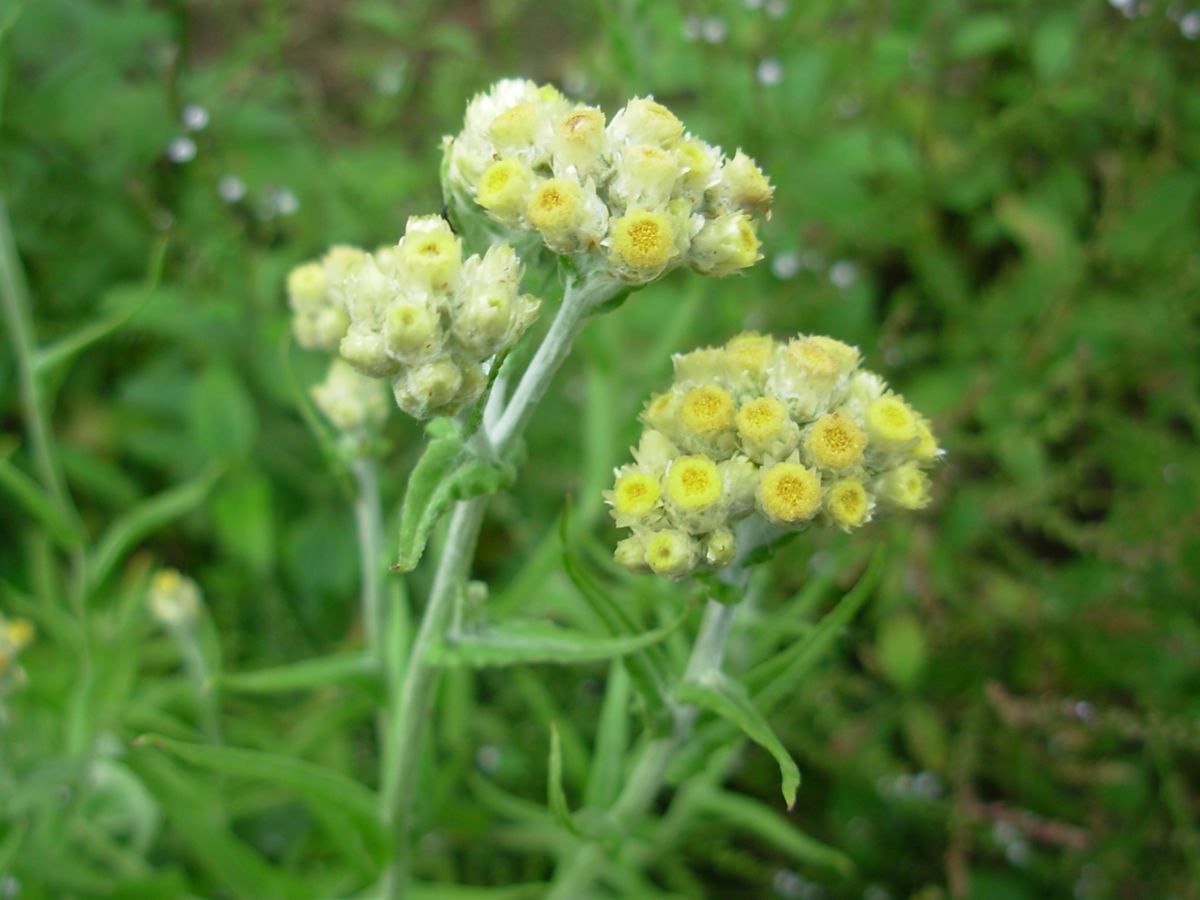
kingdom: Plantae
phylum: Tracheophyta
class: Magnoliopsida
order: Asterales
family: Asteraceae
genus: Gnaphalium
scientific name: Gnaphalium
